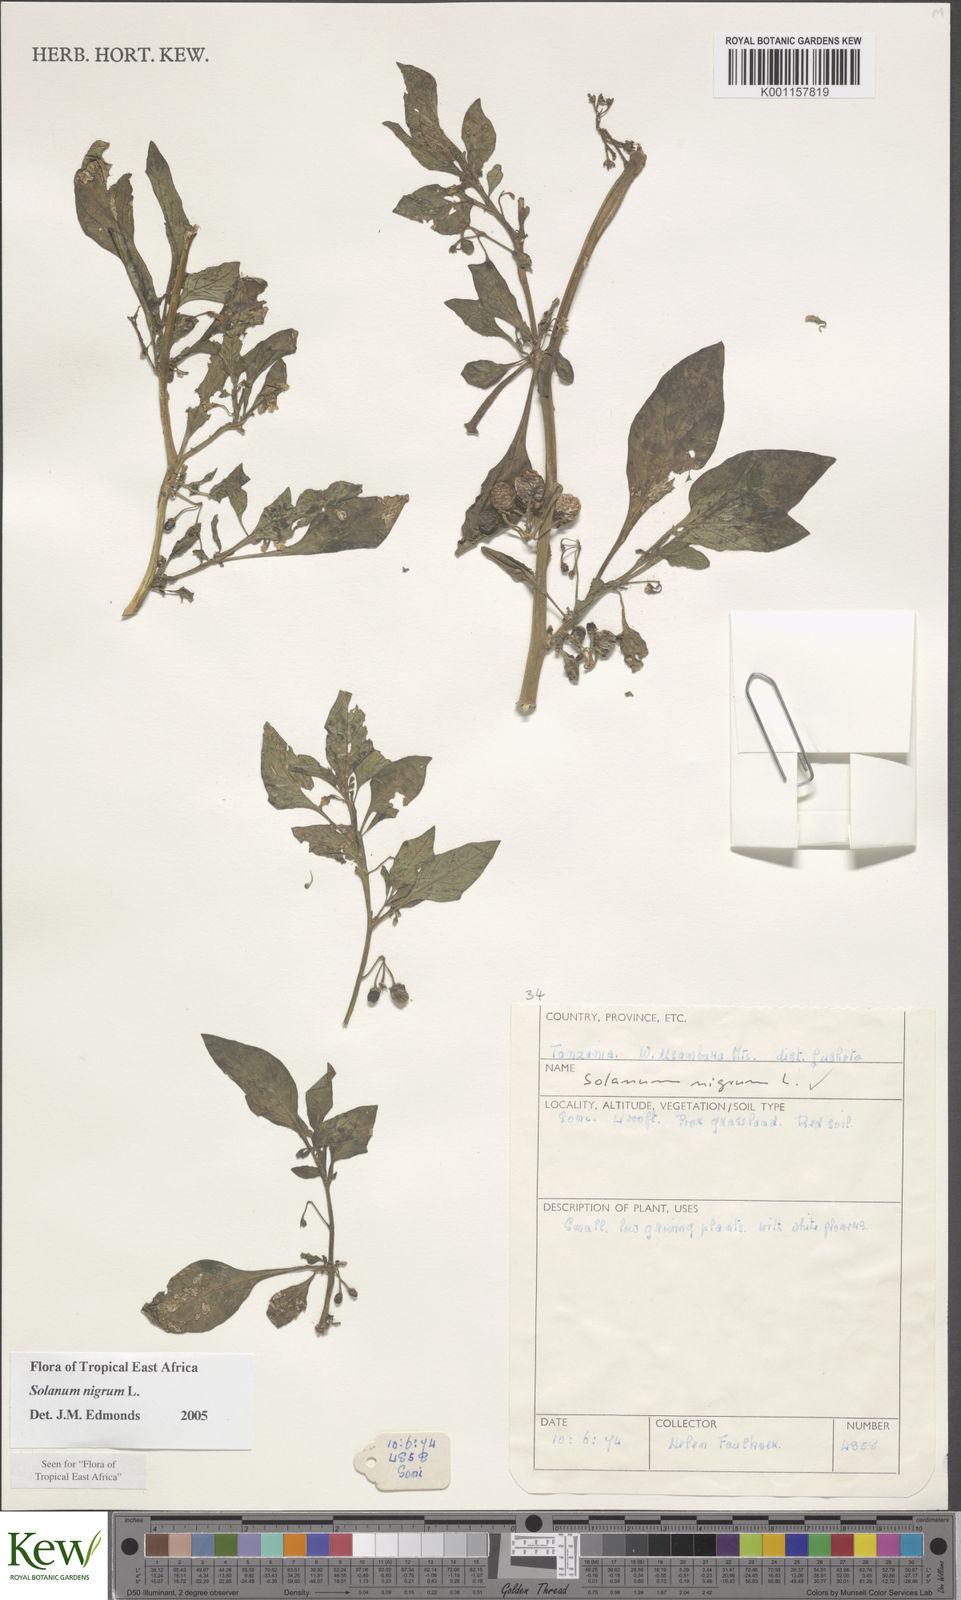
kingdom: Plantae
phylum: Tracheophyta
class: Magnoliopsida
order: Solanales
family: Solanaceae
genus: Solanum
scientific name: Solanum nigrum
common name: Black nightshade
